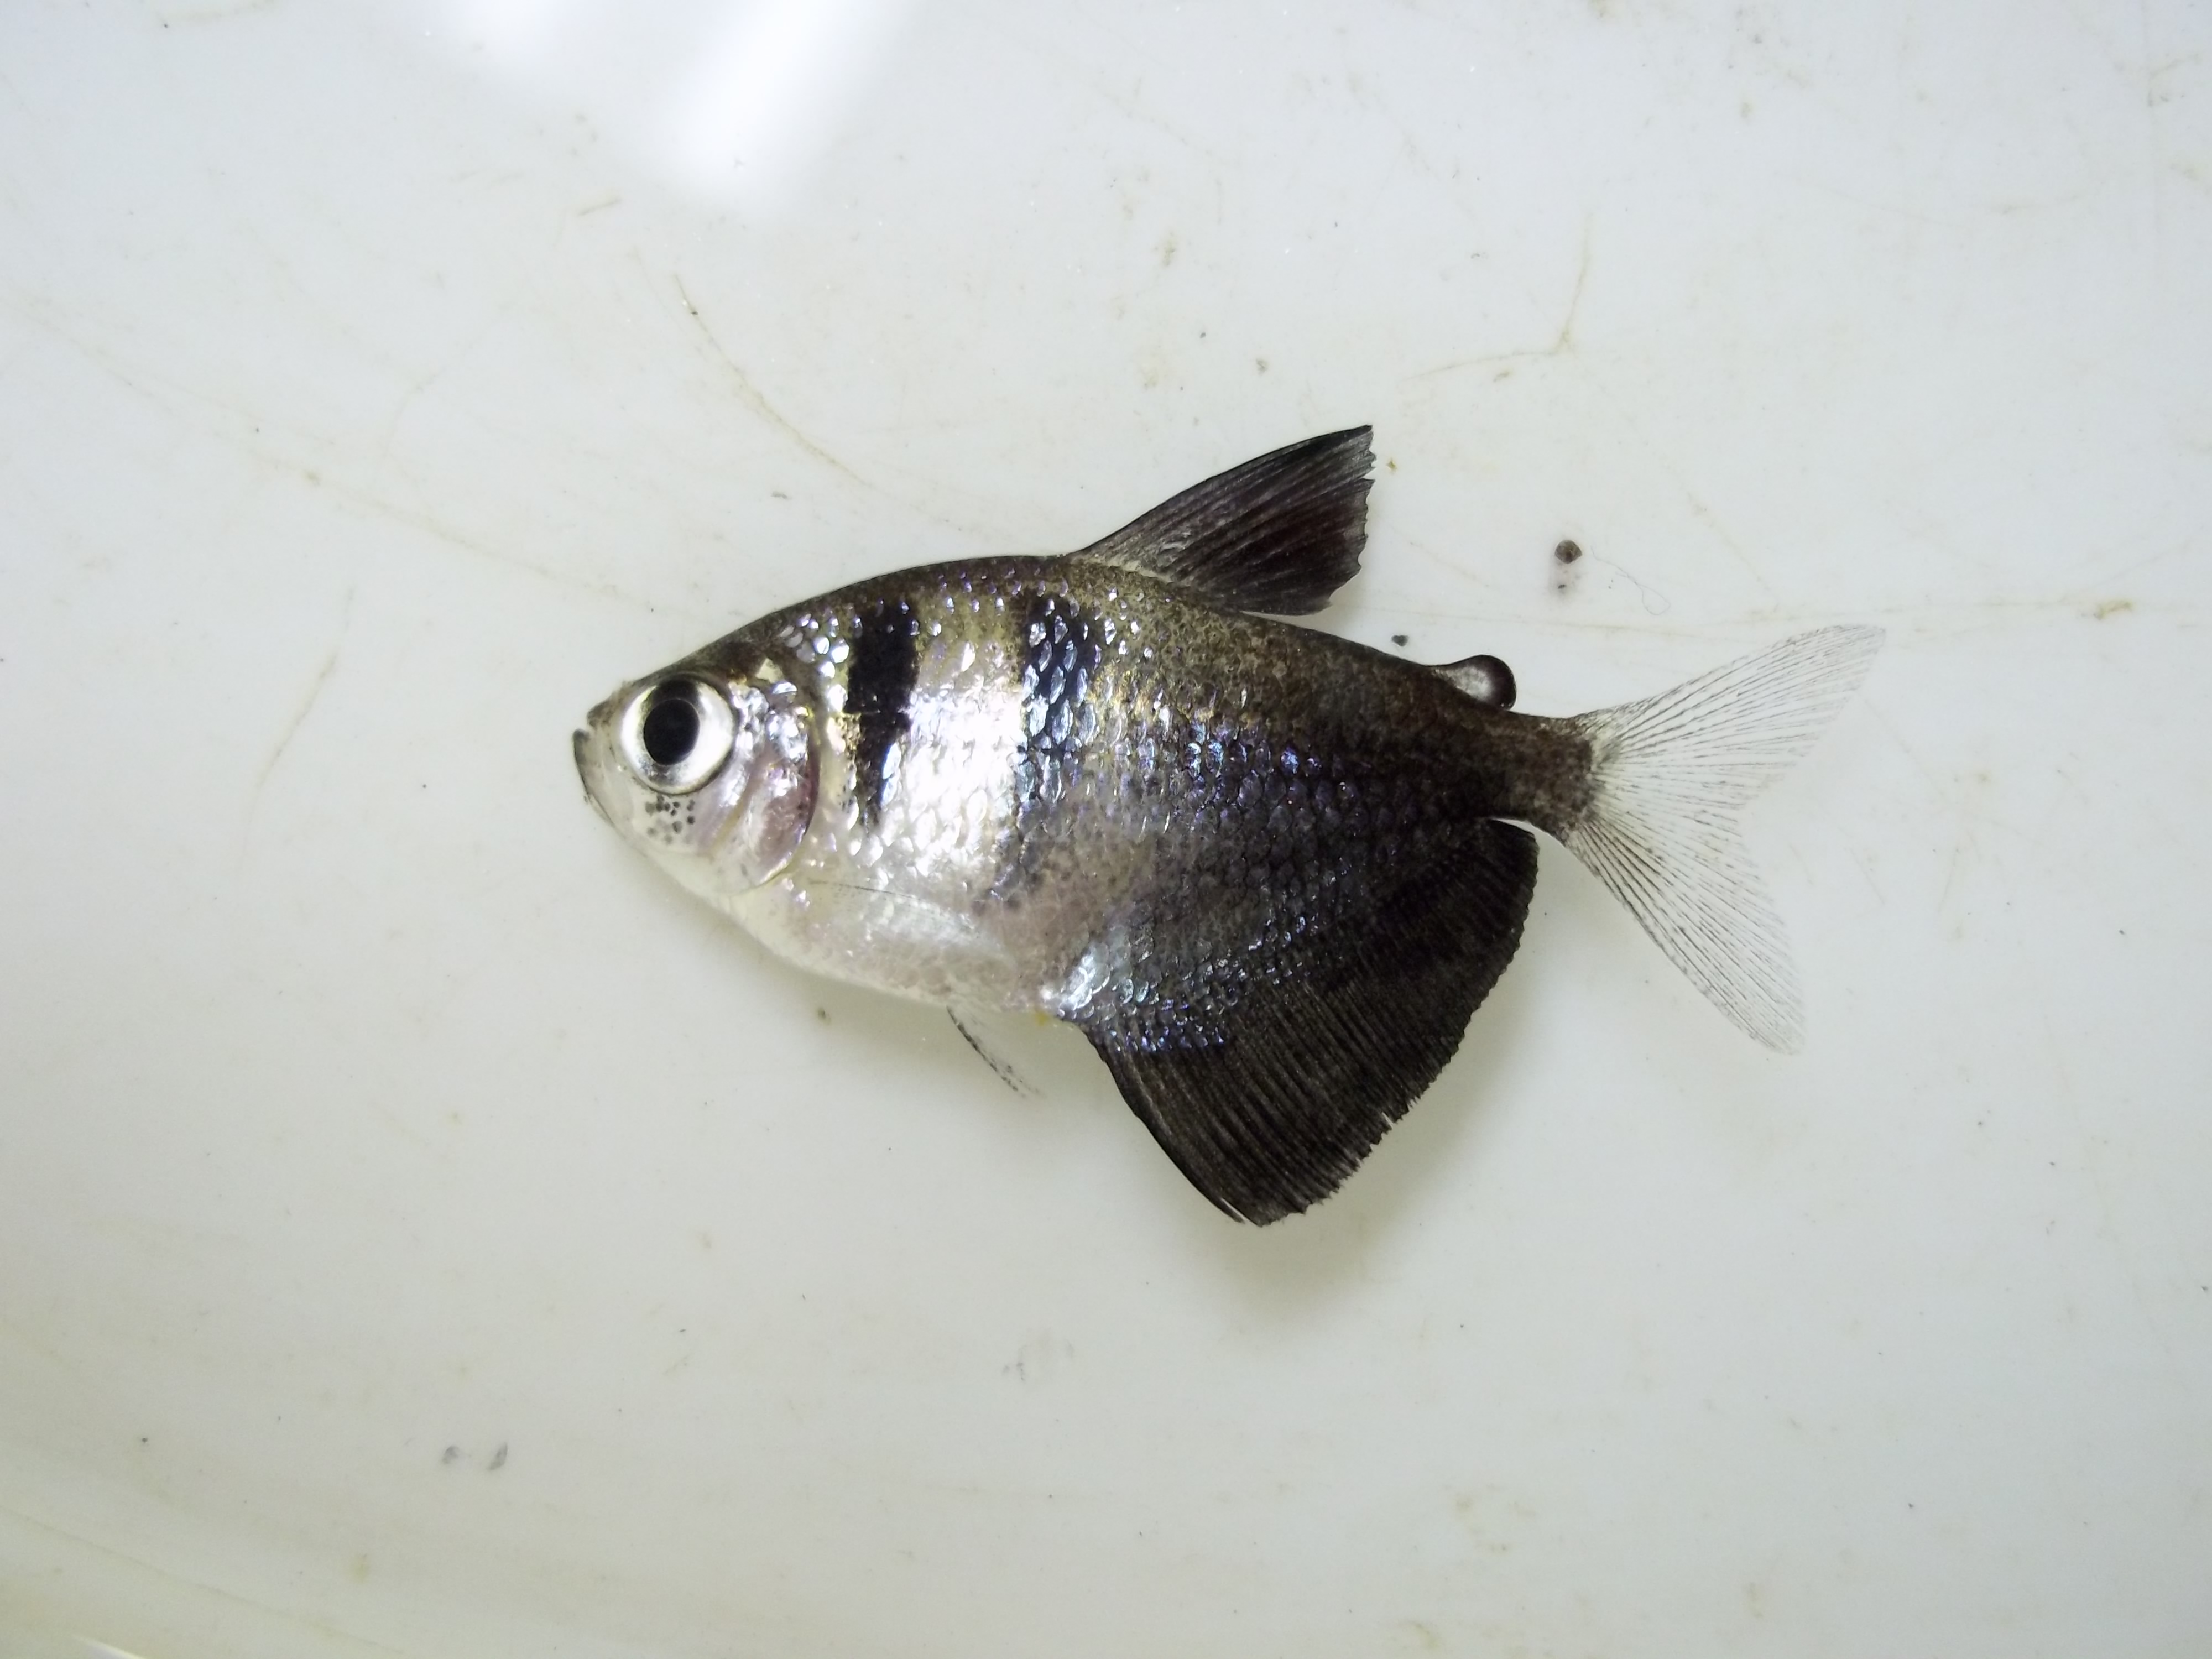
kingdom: Animalia
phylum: Chordata
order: Characiformes
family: Characidae
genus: Gymnocorymbus
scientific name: Gymnocorymbus ternetzi
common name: Black tetra
